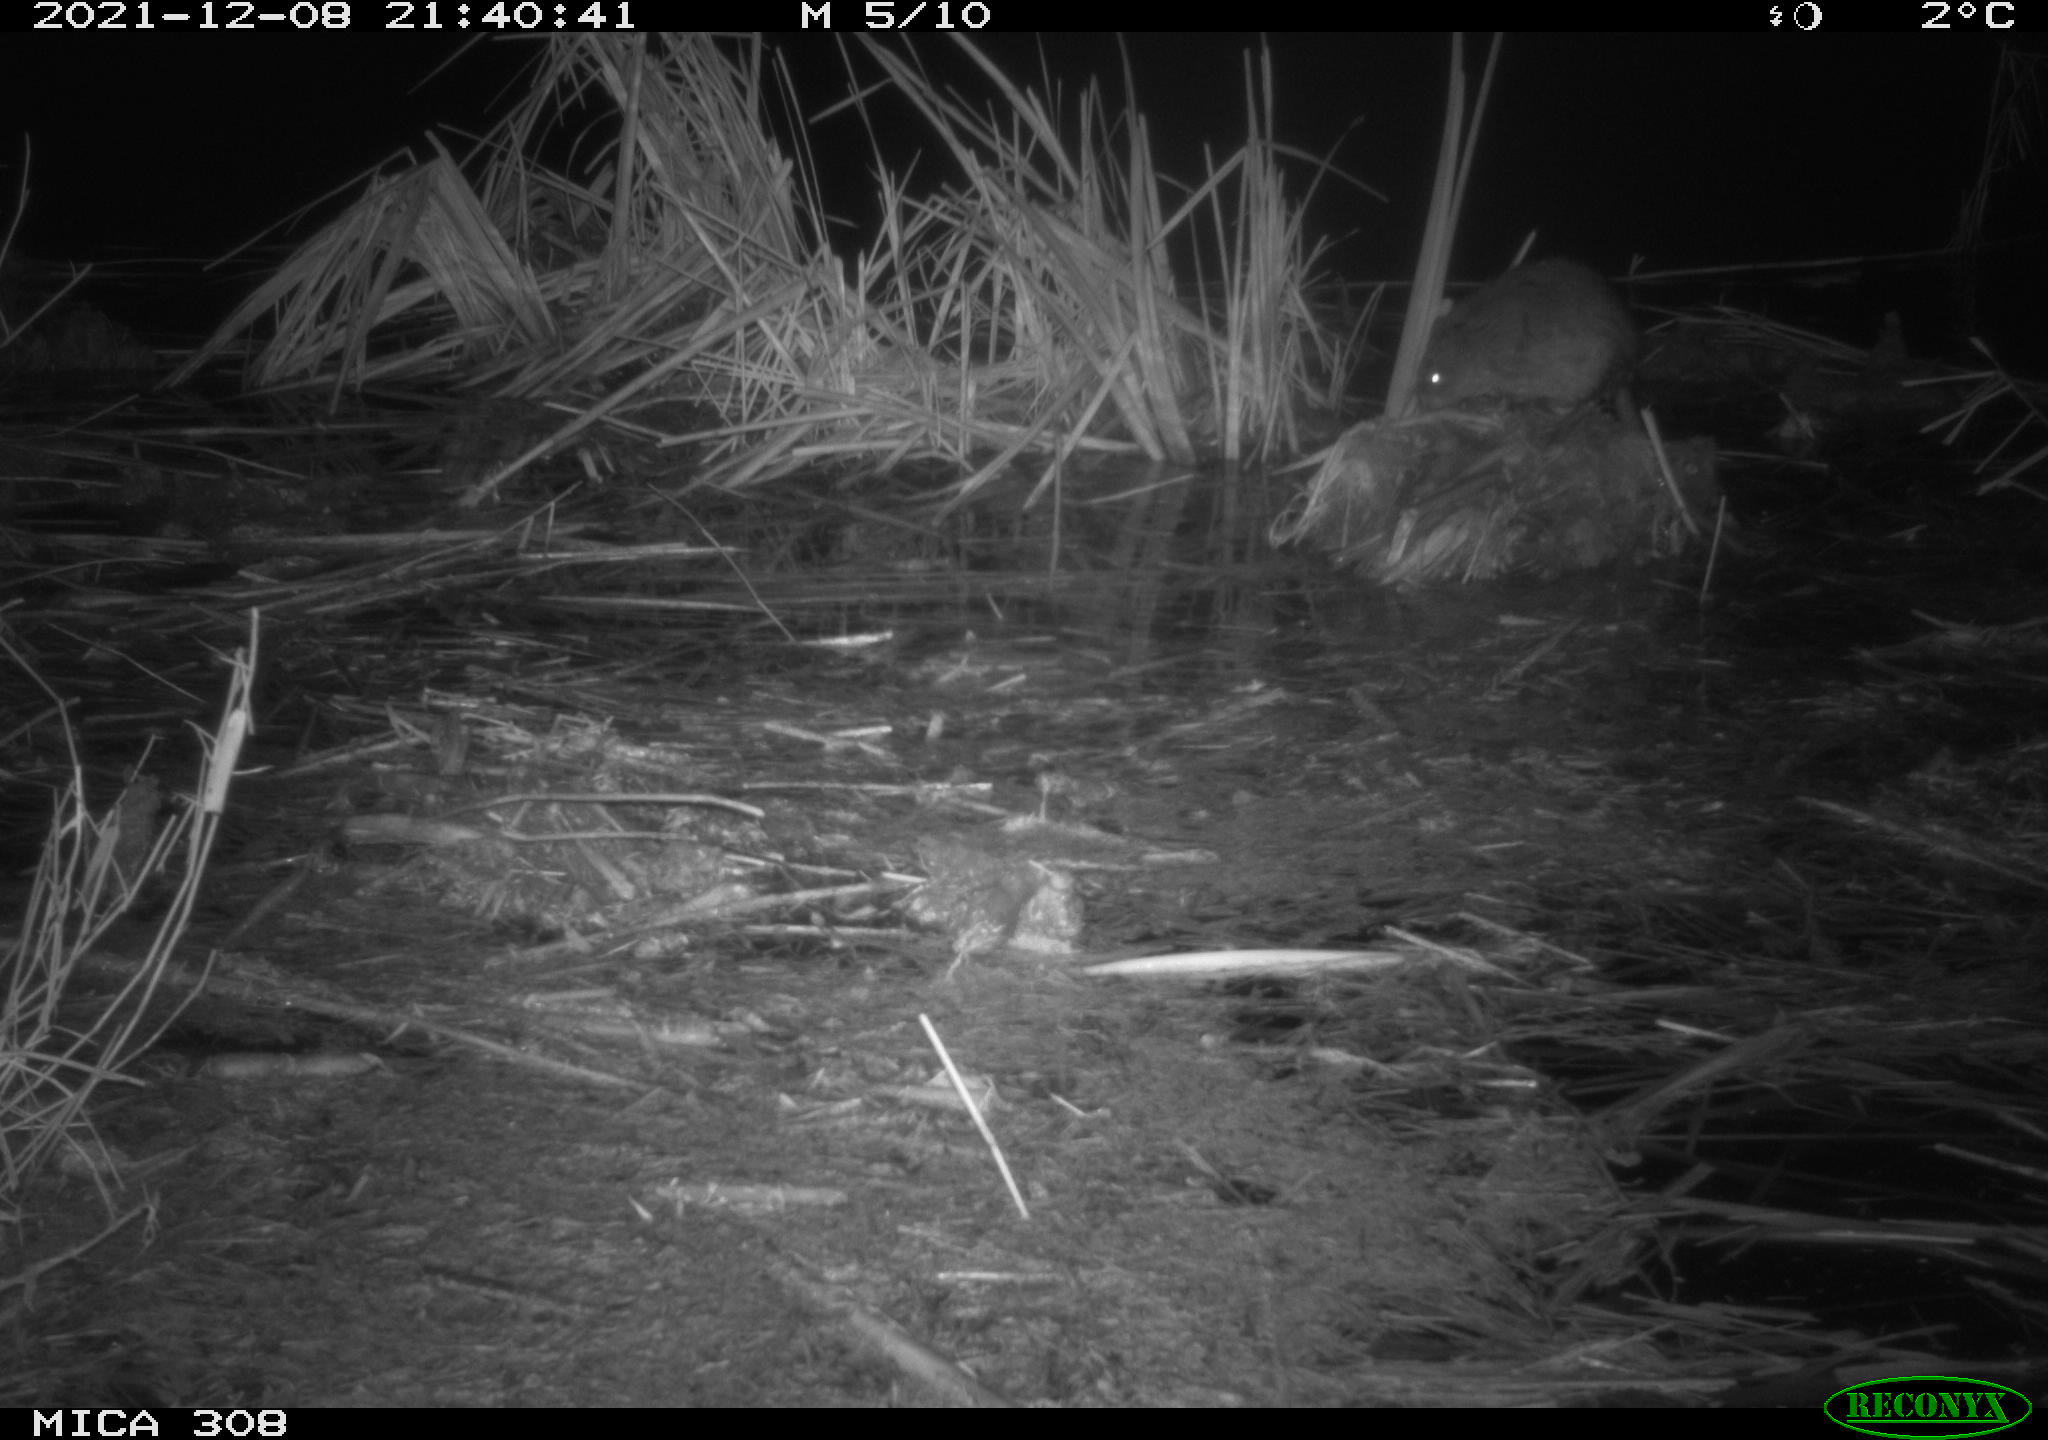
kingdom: Animalia
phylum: Chordata
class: Mammalia
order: Rodentia
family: Cricetidae
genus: Ondatra
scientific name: Ondatra zibethicus
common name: Muskrat
